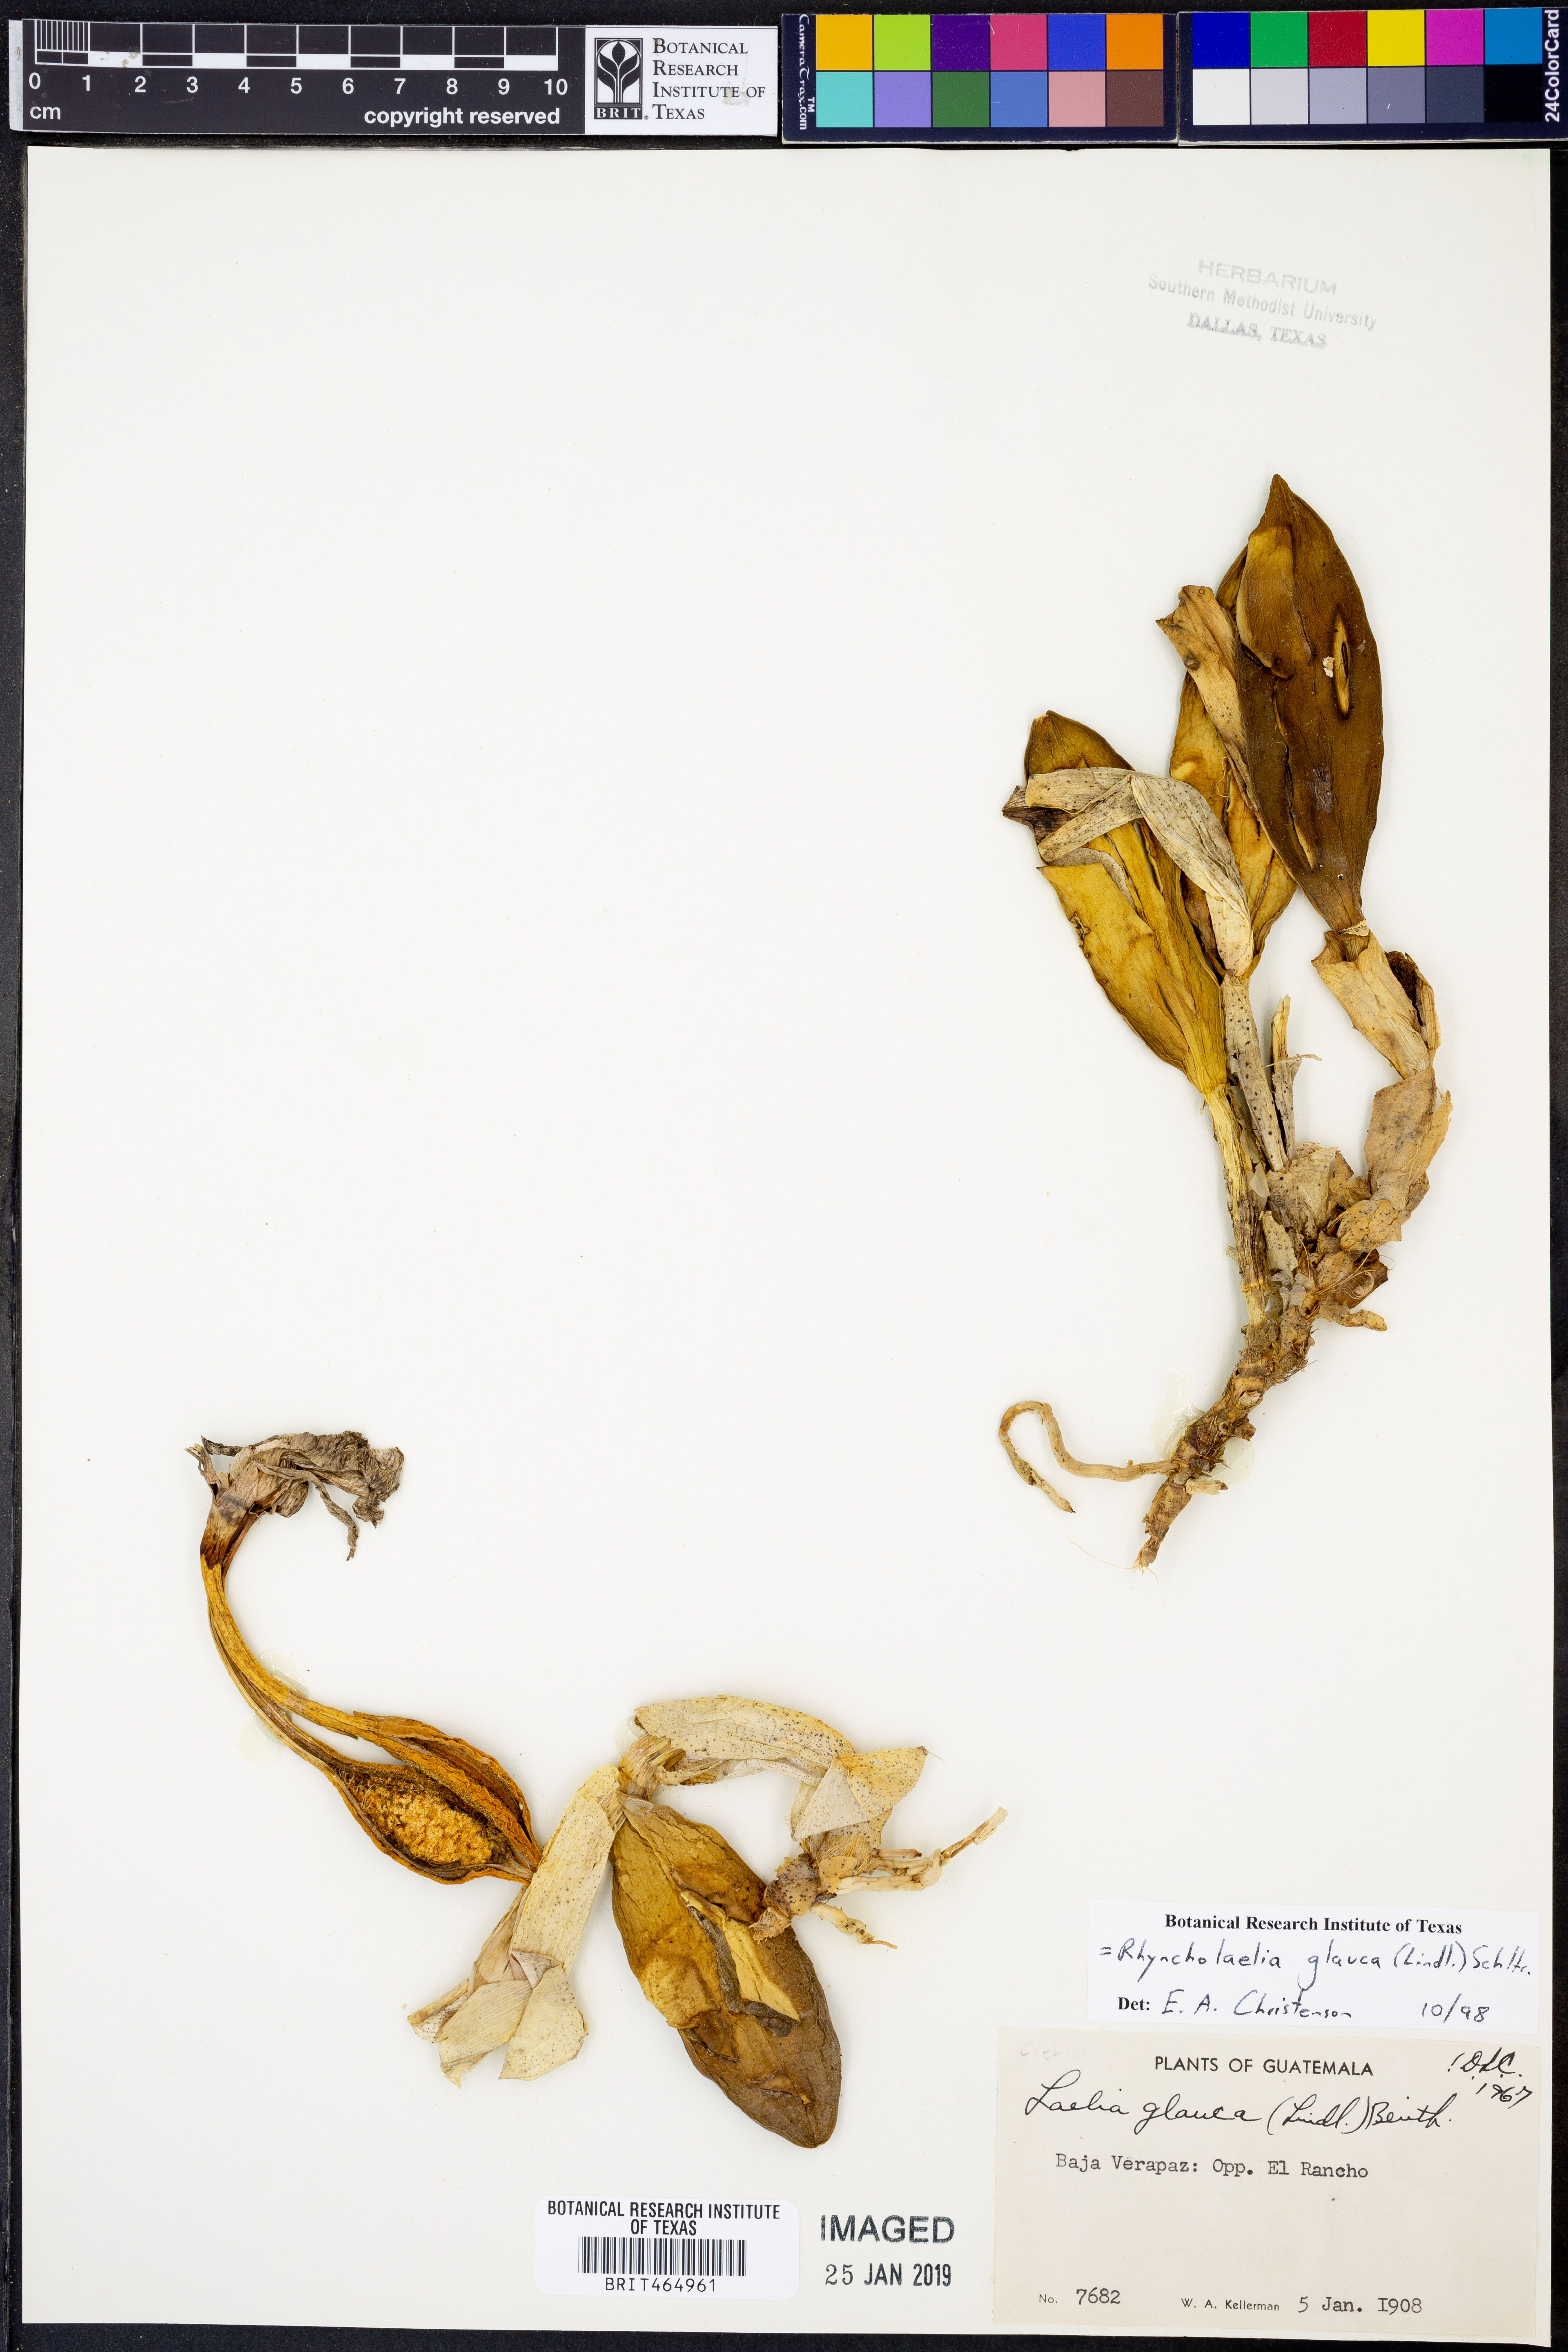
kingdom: Plantae
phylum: Tracheophyta
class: Liliopsida
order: Asparagales
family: Orchidaceae
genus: Rhyncholaelia
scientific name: Rhyncholaelia glauca
